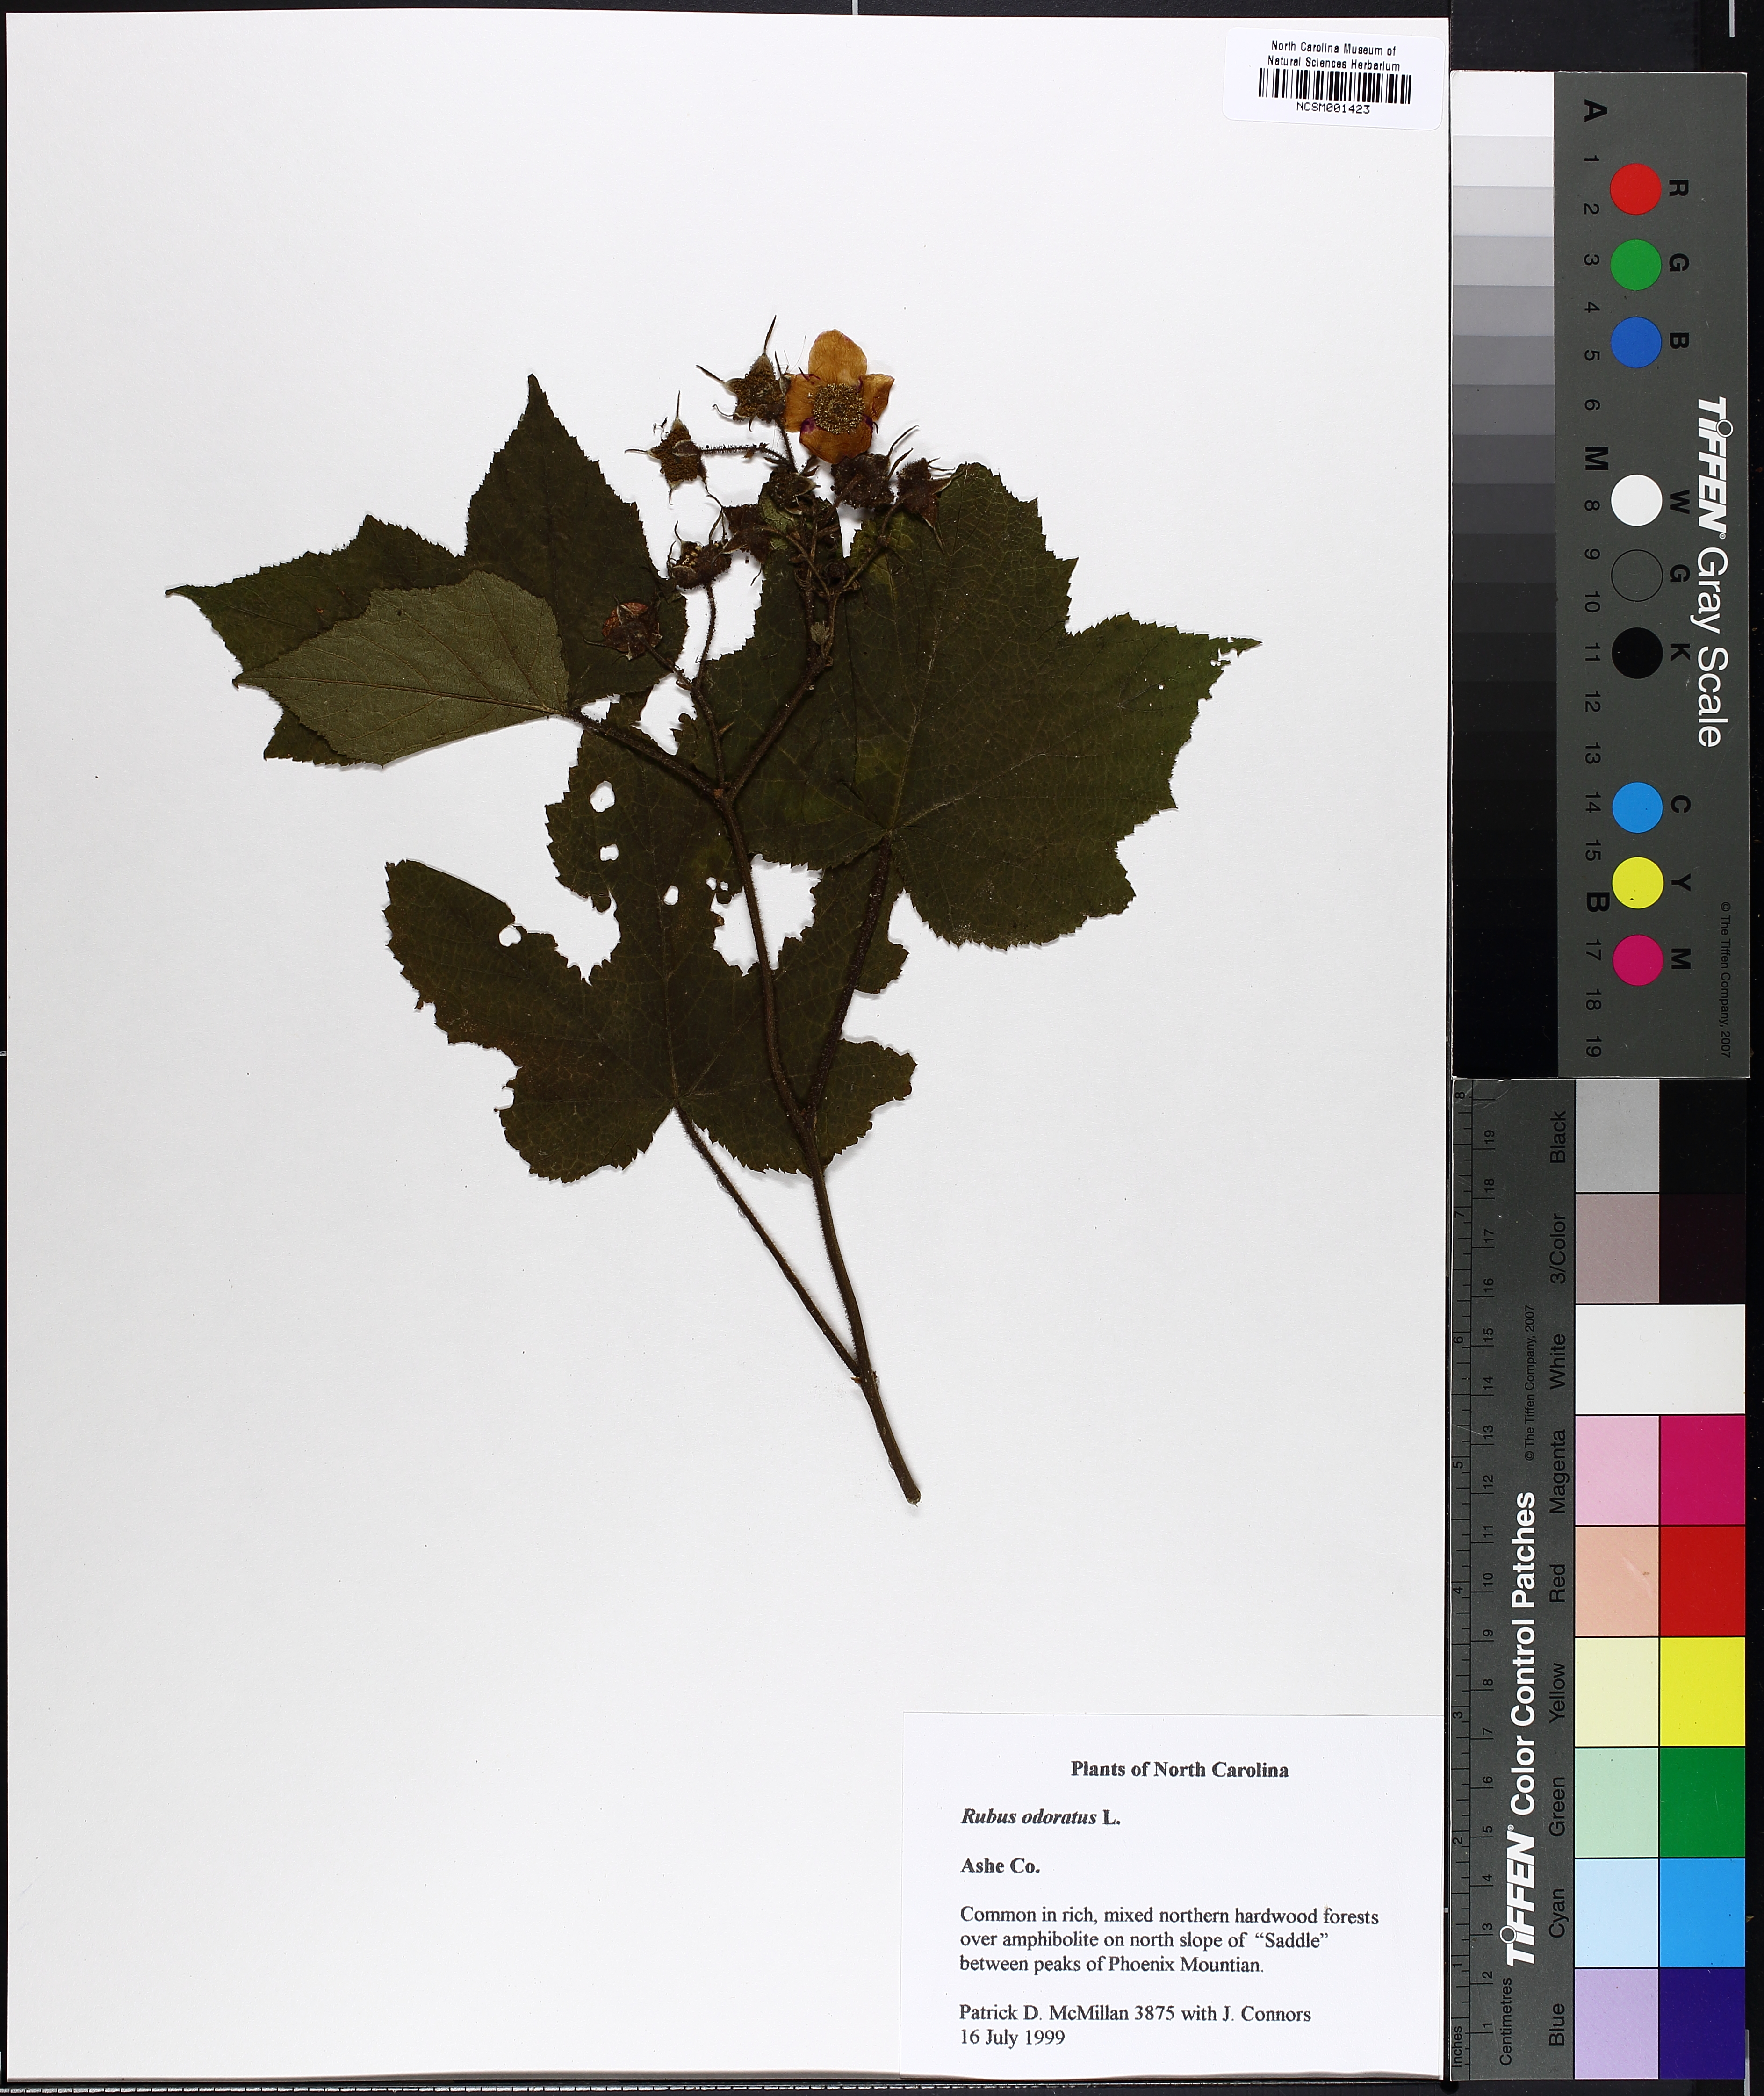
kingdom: Plantae
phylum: Tracheophyta
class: Magnoliopsida
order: Rosales
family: Rosaceae
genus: Rubus
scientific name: Rubus odoratus
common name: Purple-flowered raspberry
